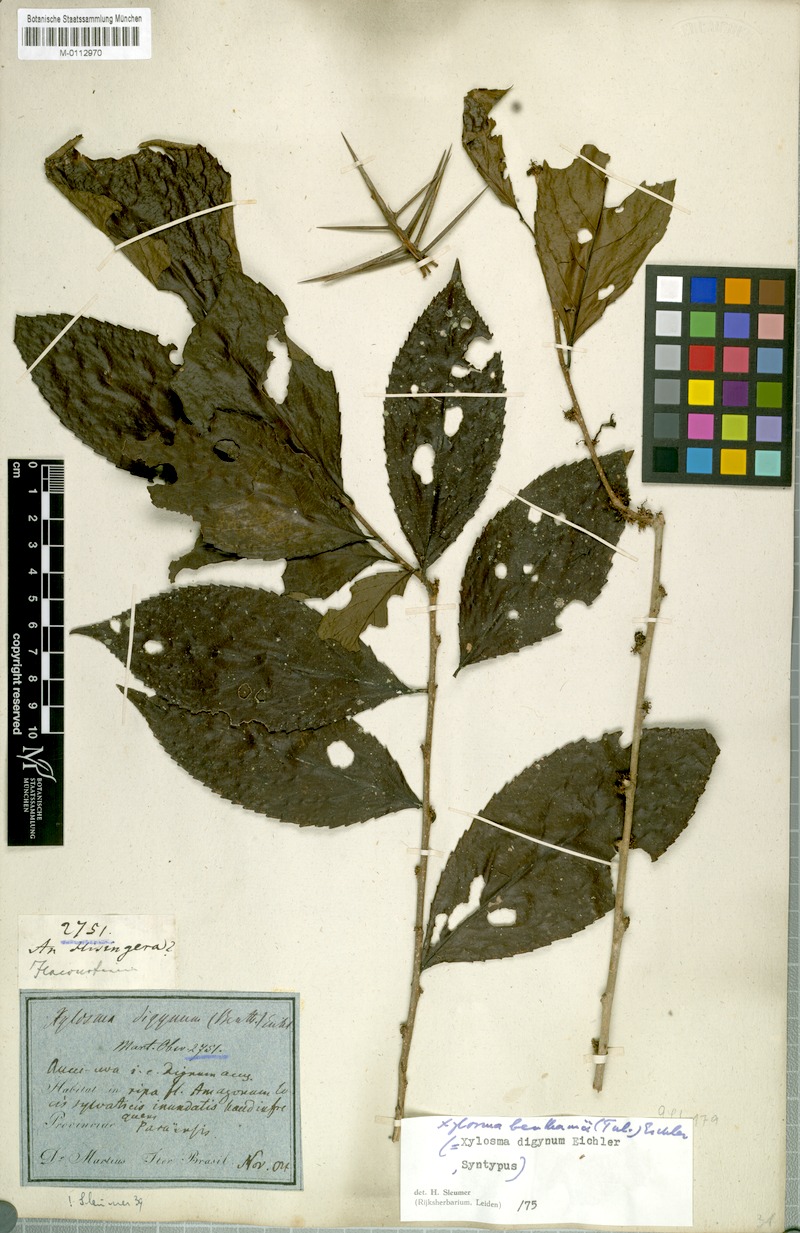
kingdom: Plantae
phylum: Tracheophyta
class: Magnoliopsida
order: Malpighiales
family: Salicaceae
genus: Xylosma
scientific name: Xylosma benthamii
